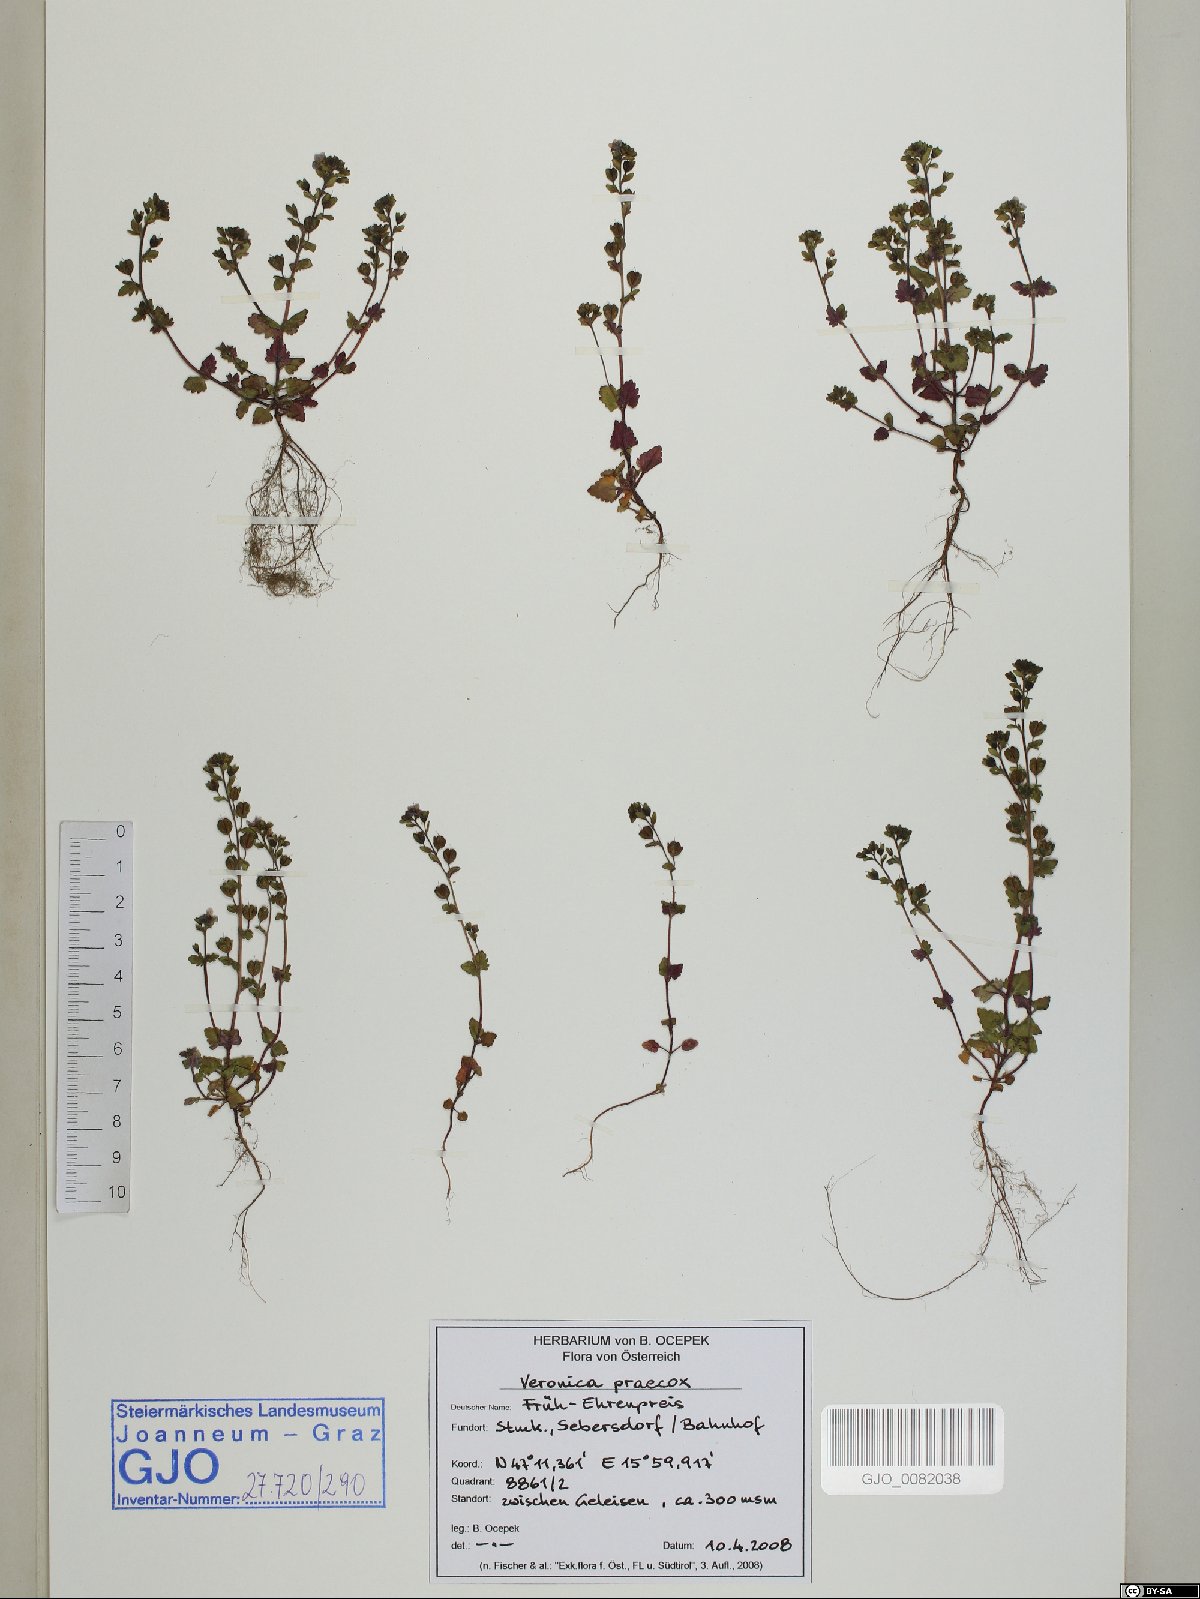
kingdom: Plantae
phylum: Tracheophyta
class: Magnoliopsida
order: Lamiales
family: Plantaginaceae
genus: Veronica
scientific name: Veronica praecox
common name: Breckland speedwell
